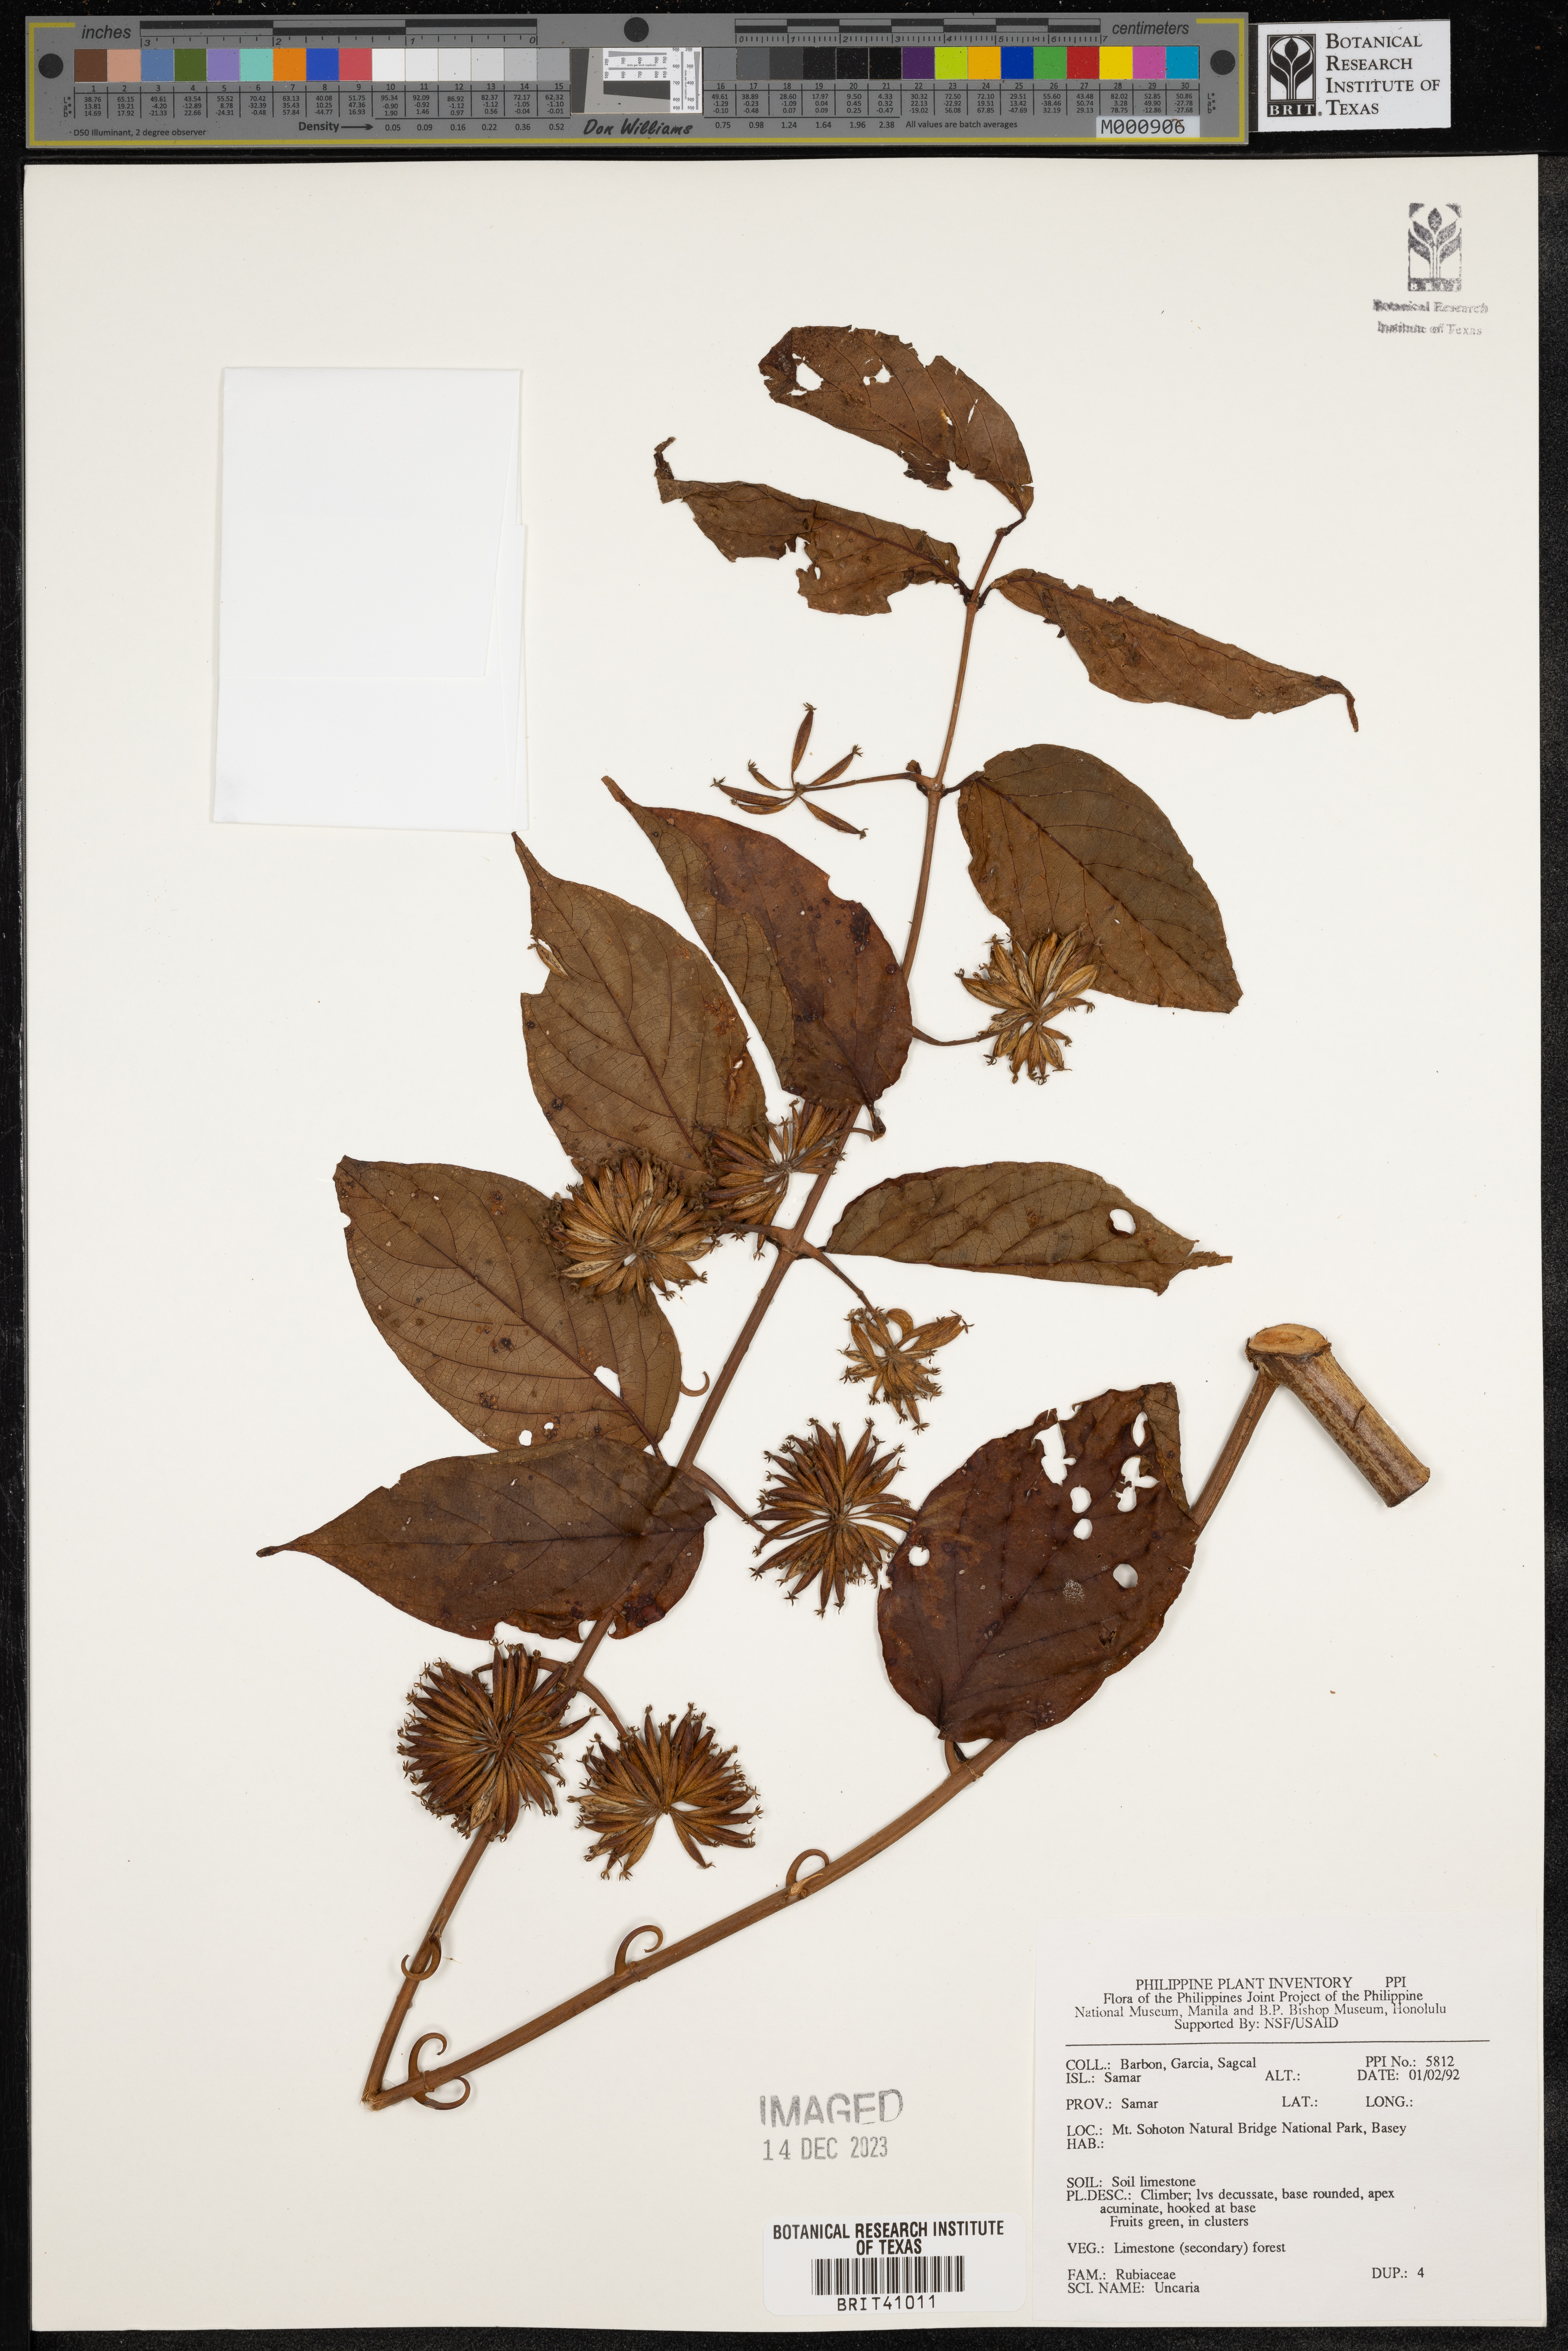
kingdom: Plantae
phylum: Tracheophyta
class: Magnoliopsida
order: Gentianales
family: Rubiaceae
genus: Uncaria
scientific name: Uncaria
